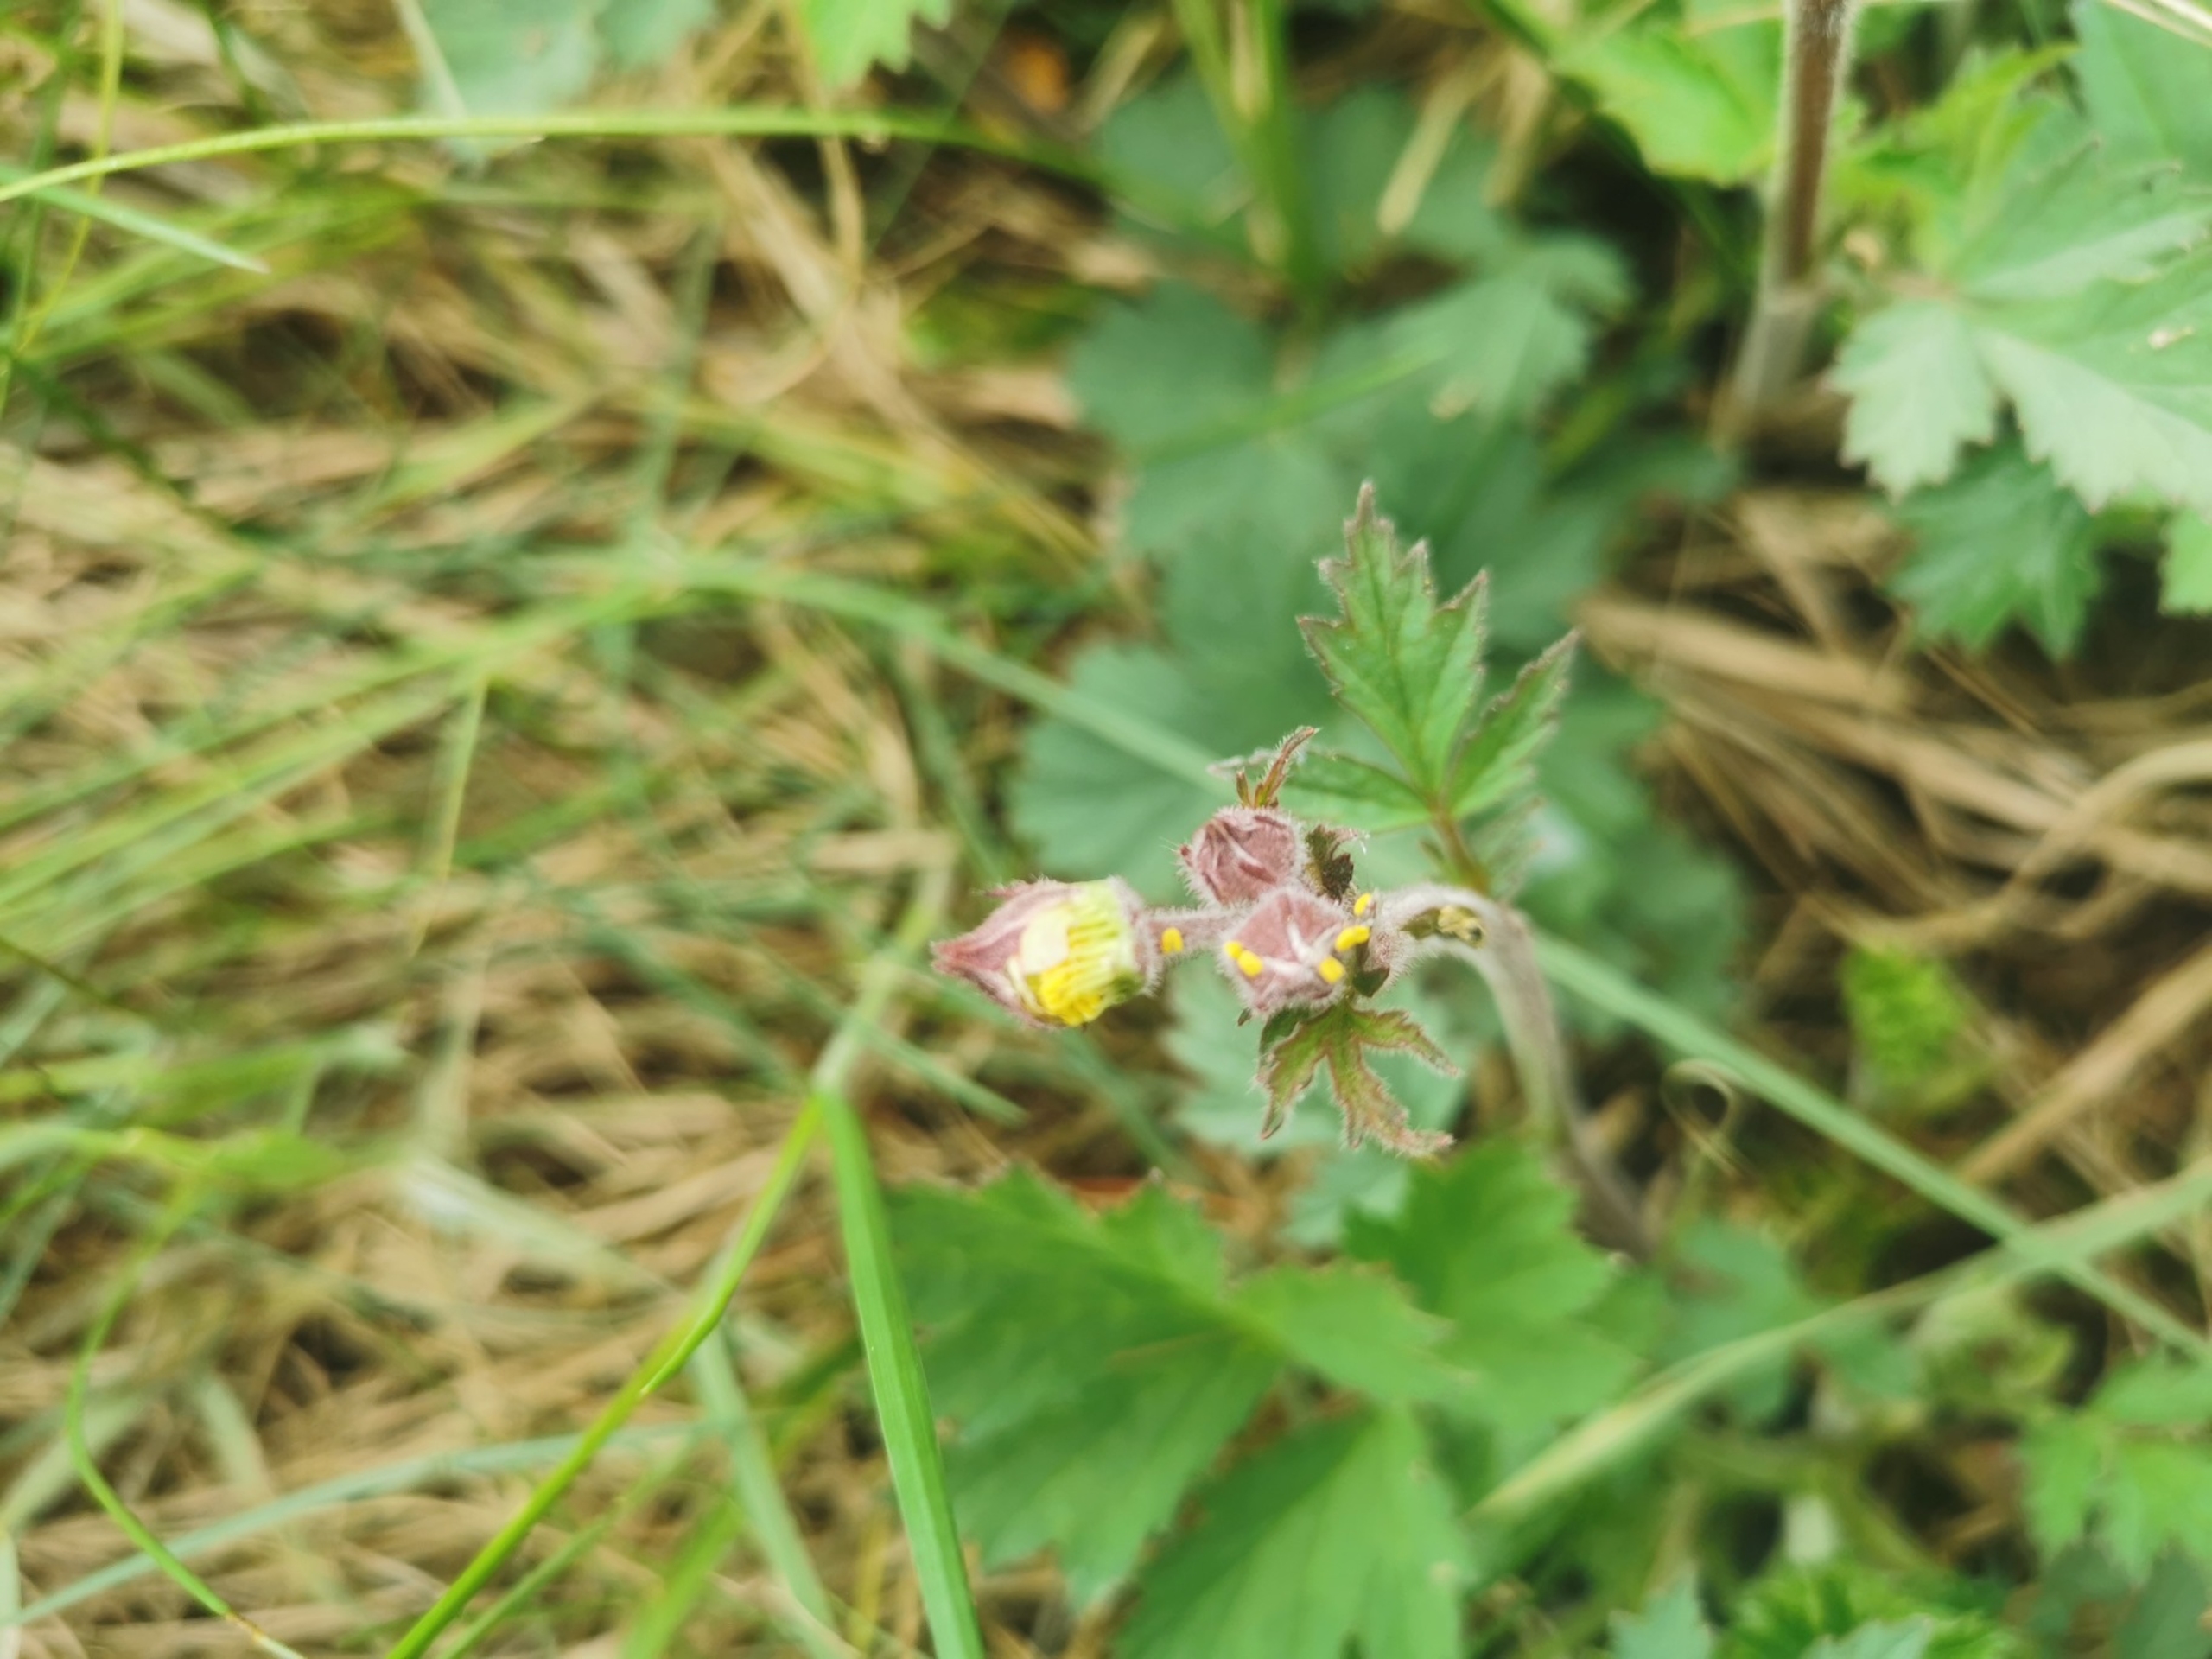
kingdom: Plantae
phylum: Tracheophyta
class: Magnoliopsida
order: Rosales
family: Rosaceae
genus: Geum
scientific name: Geum rivale
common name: Eng-nellikerod
